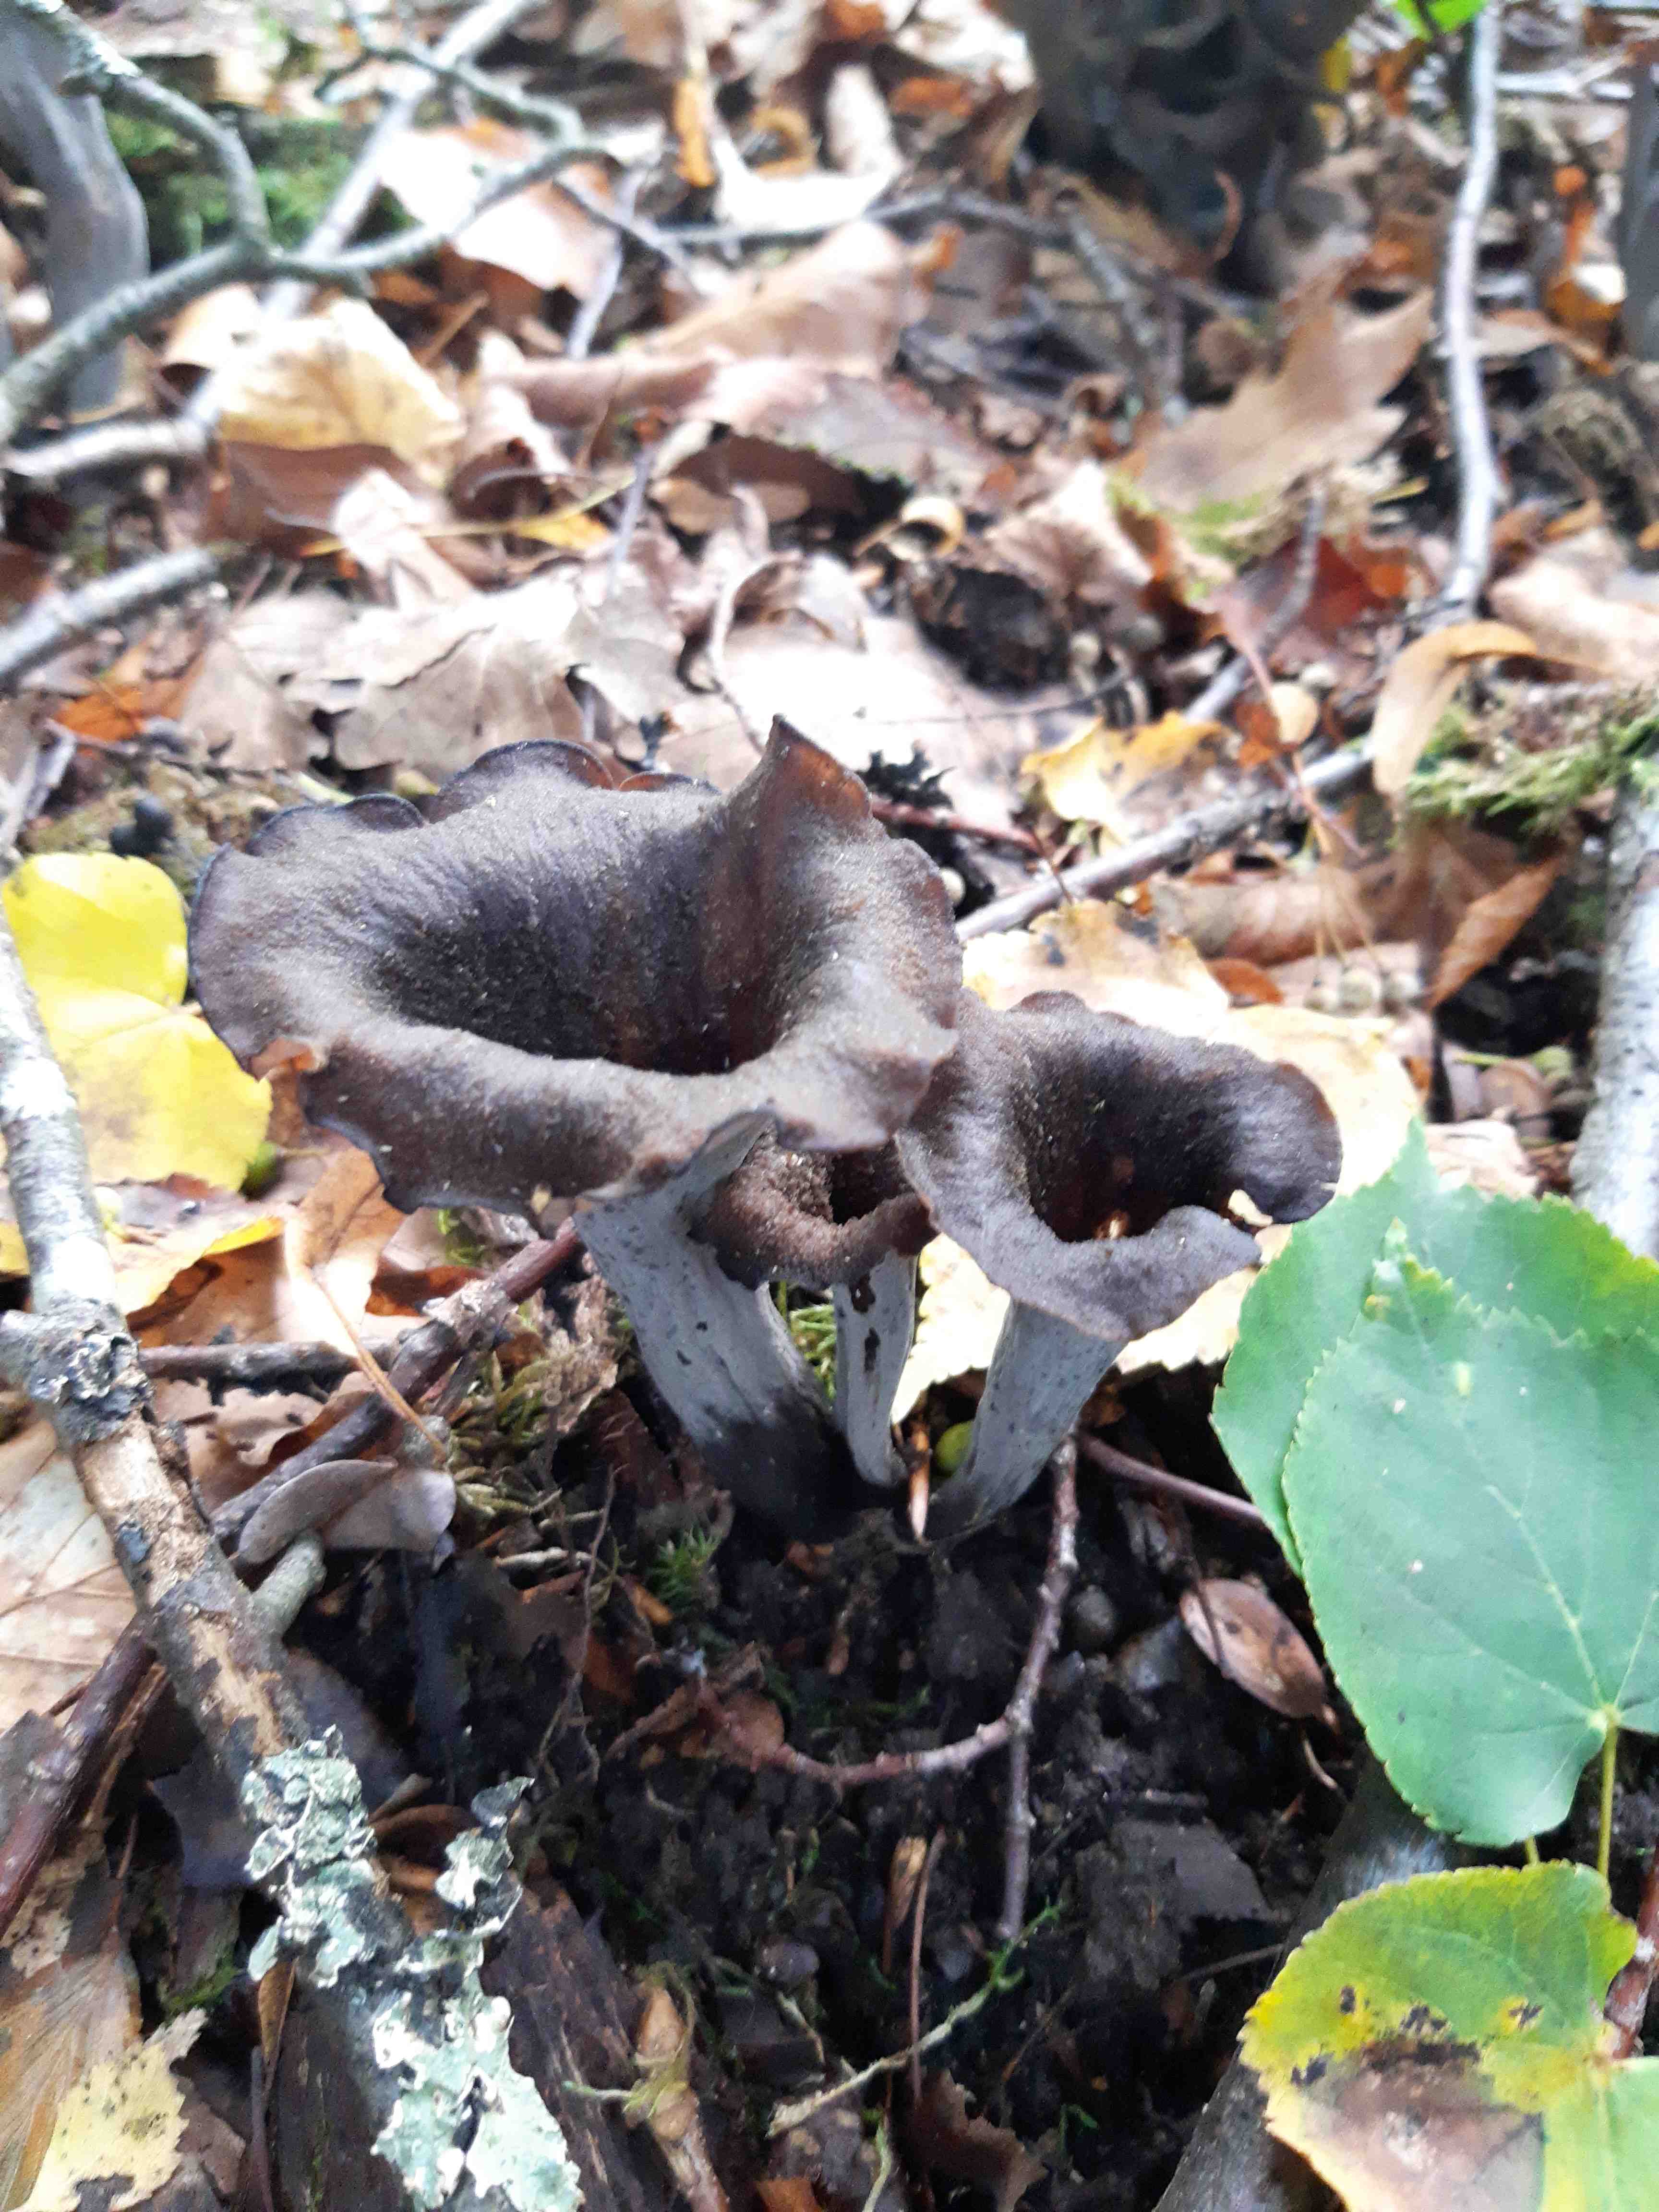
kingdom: Fungi
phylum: Basidiomycota
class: Agaricomycetes
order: Cantharellales
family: Hydnaceae
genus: Craterellus
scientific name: Craterellus cornucopioides
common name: trompetsvamp
